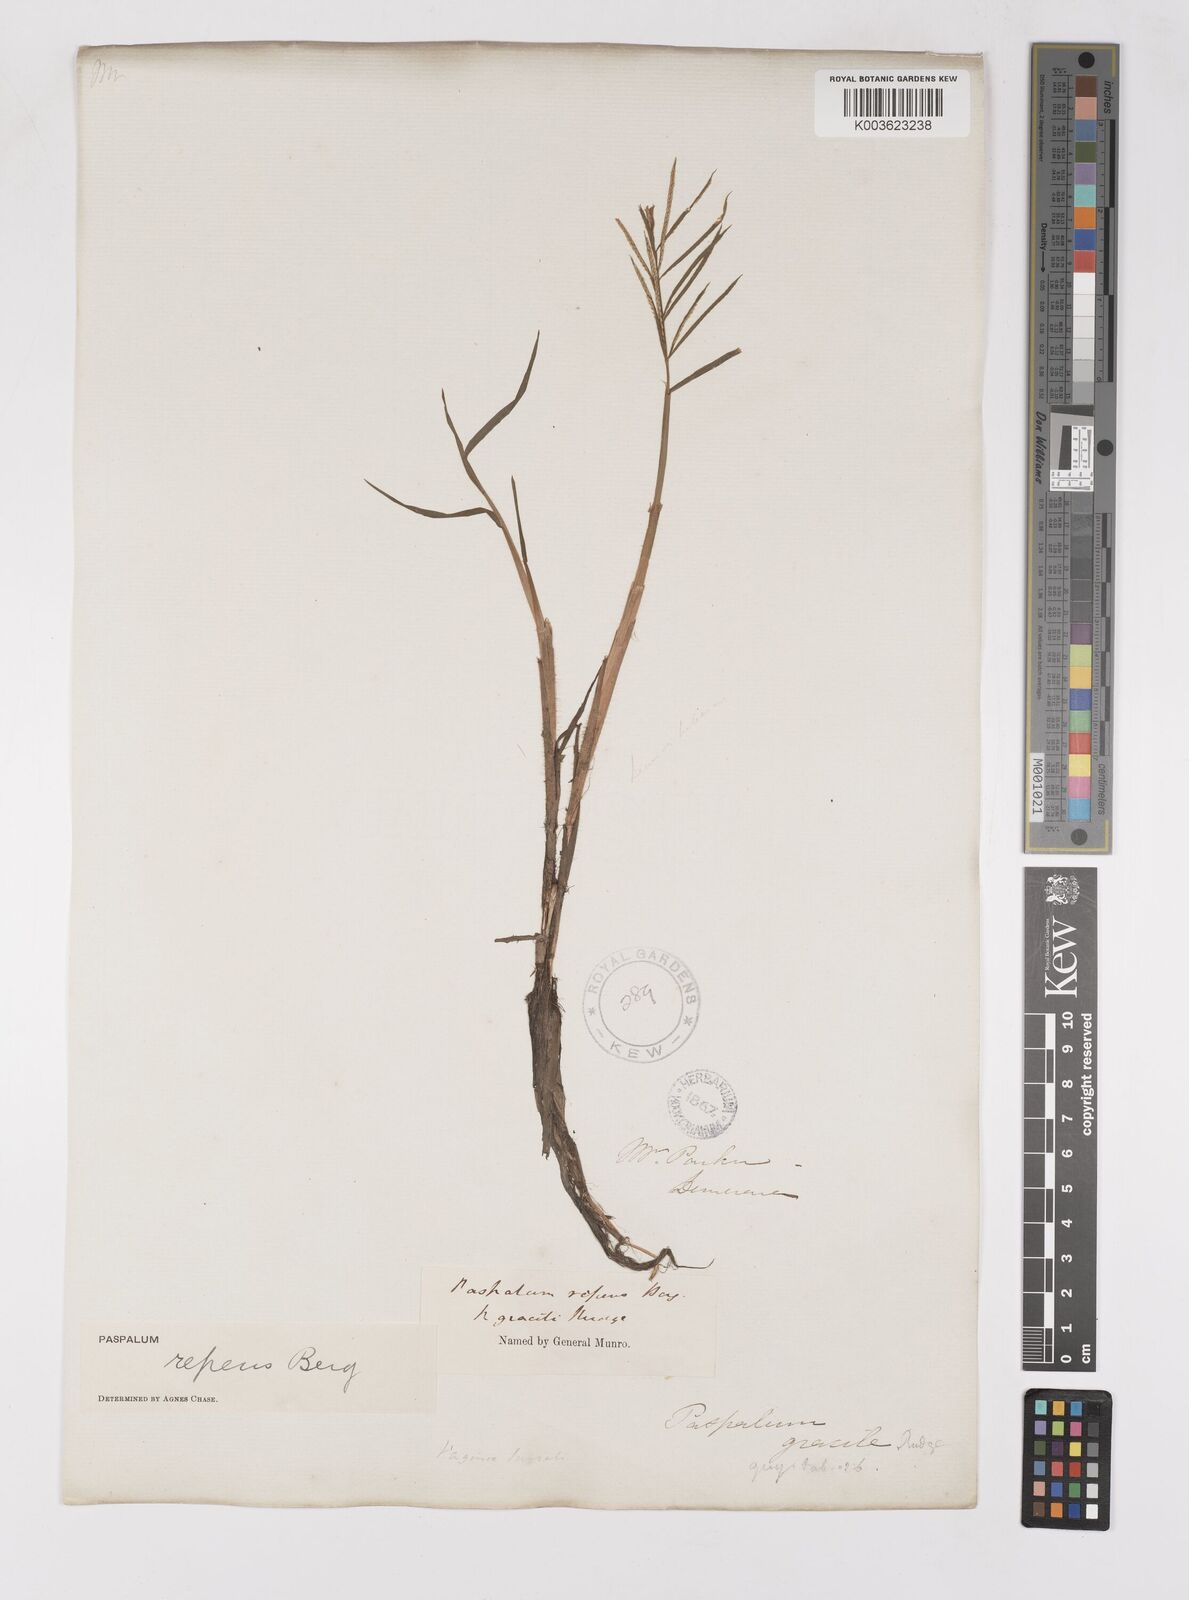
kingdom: Plantae
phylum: Tracheophyta
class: Liliopsida
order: Poales
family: Poaceae
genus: Paspalum
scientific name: Paspalum repens
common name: Water paspalum
